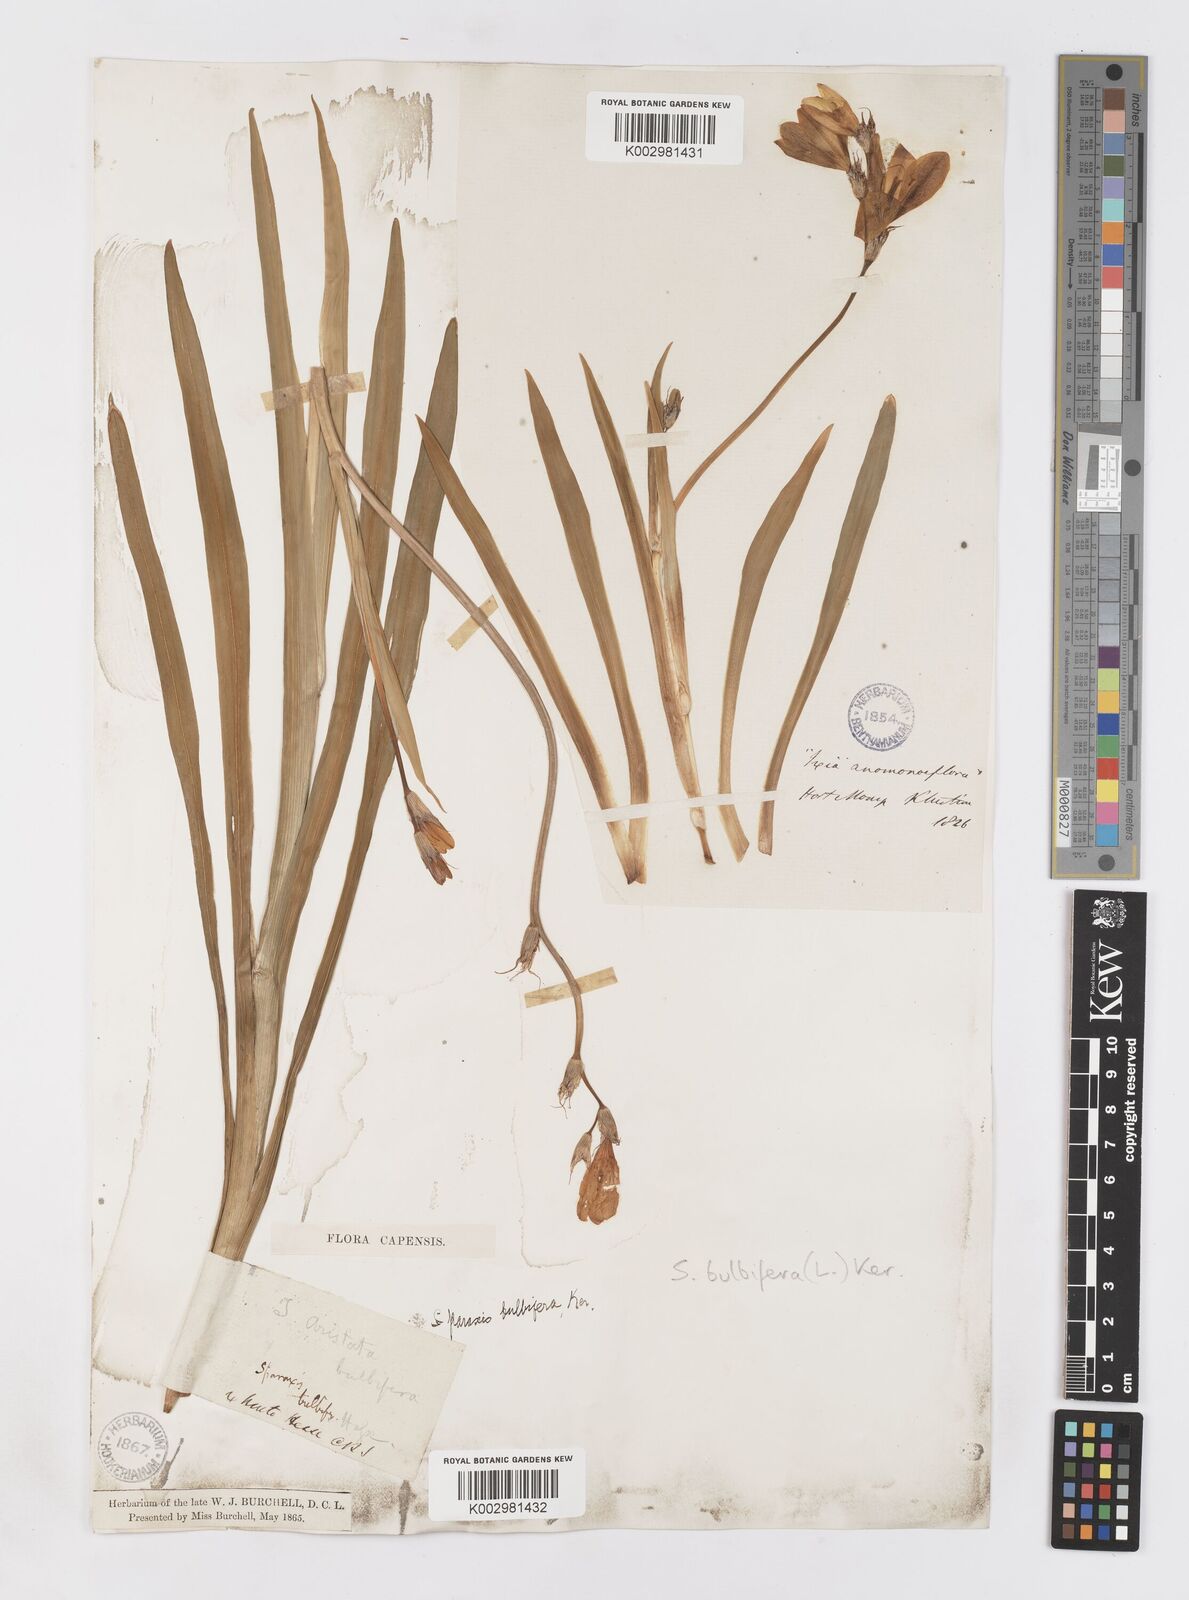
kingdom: Plantae
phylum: Tracheophyta
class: Liliopsida
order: Asparagales
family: Iridaceae
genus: Sparaxis
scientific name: Sparaxis bulbifera
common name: Harlequin-flower
